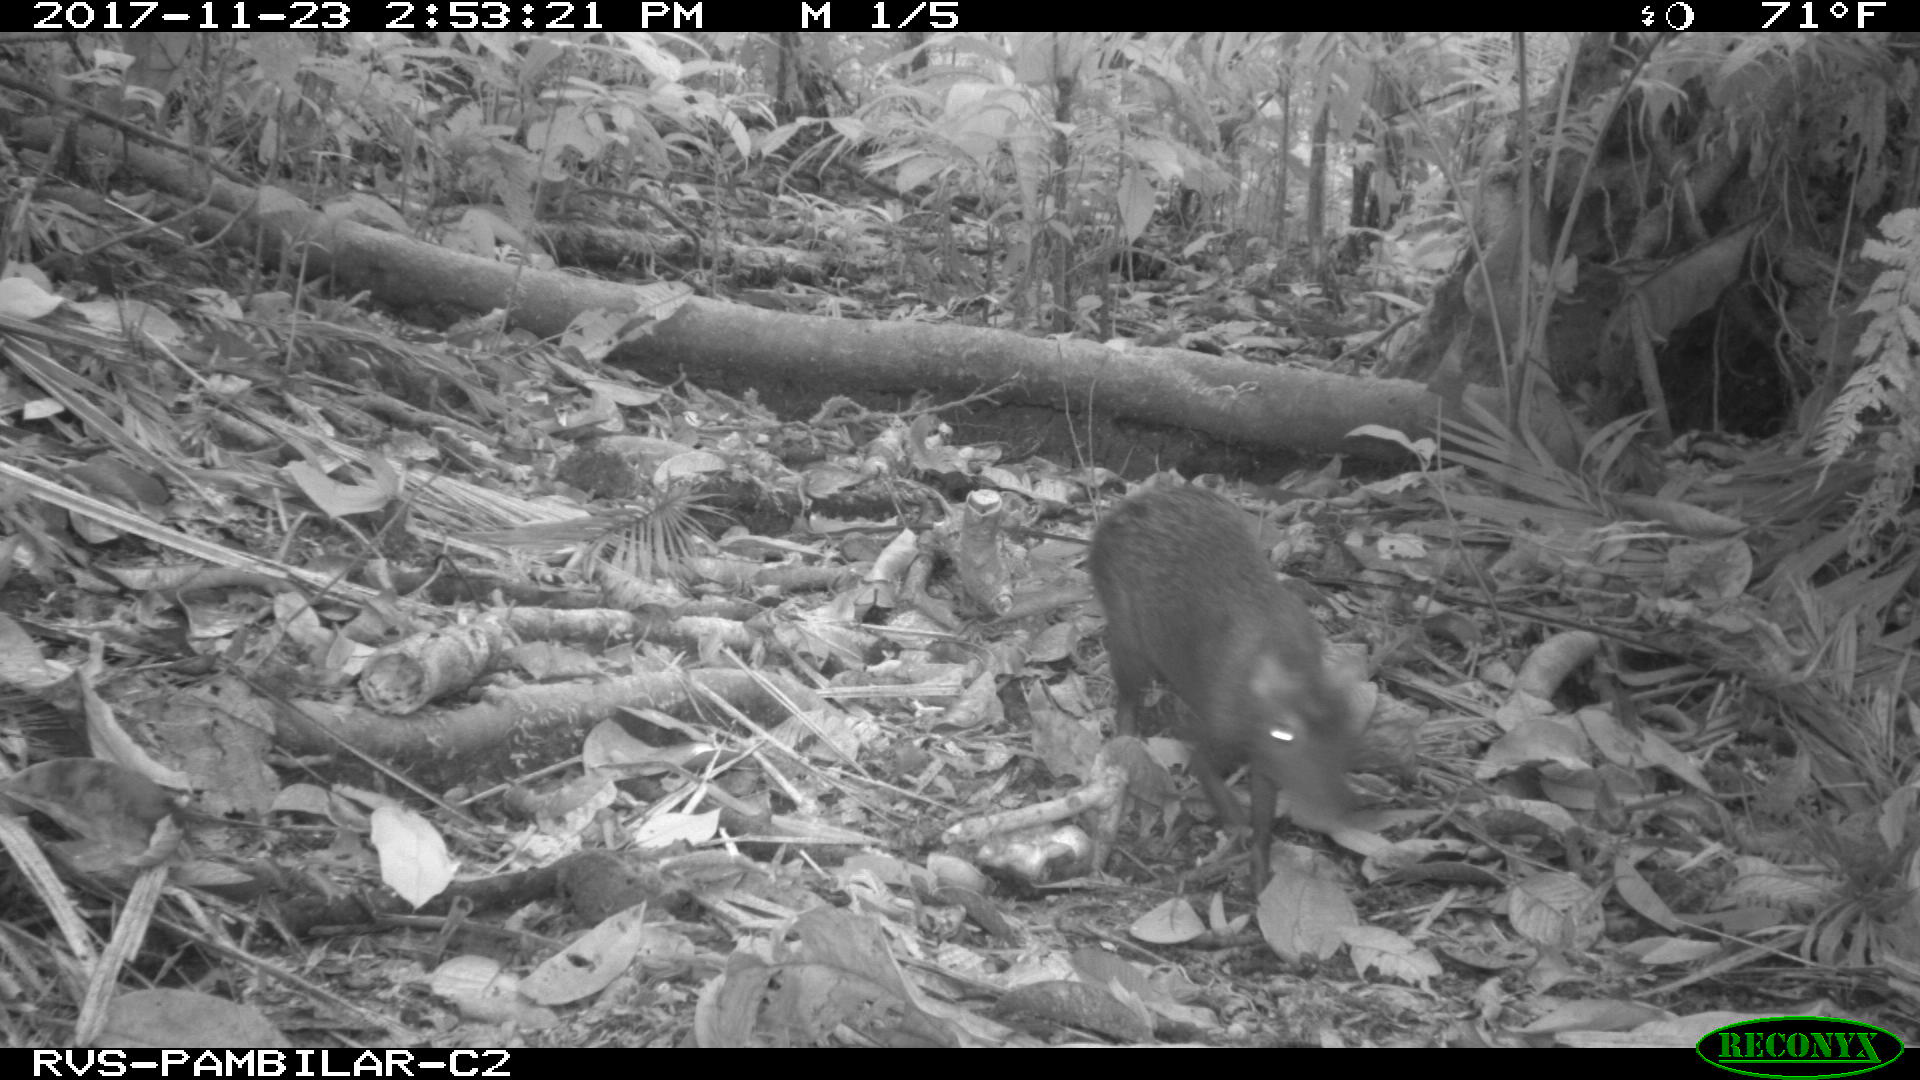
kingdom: Animalia
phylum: Chordata
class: Mammalia
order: Rodentia
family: Dasyproctidae
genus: Dasyprocta
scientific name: Dasyprocta punctata
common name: Central american agouti
